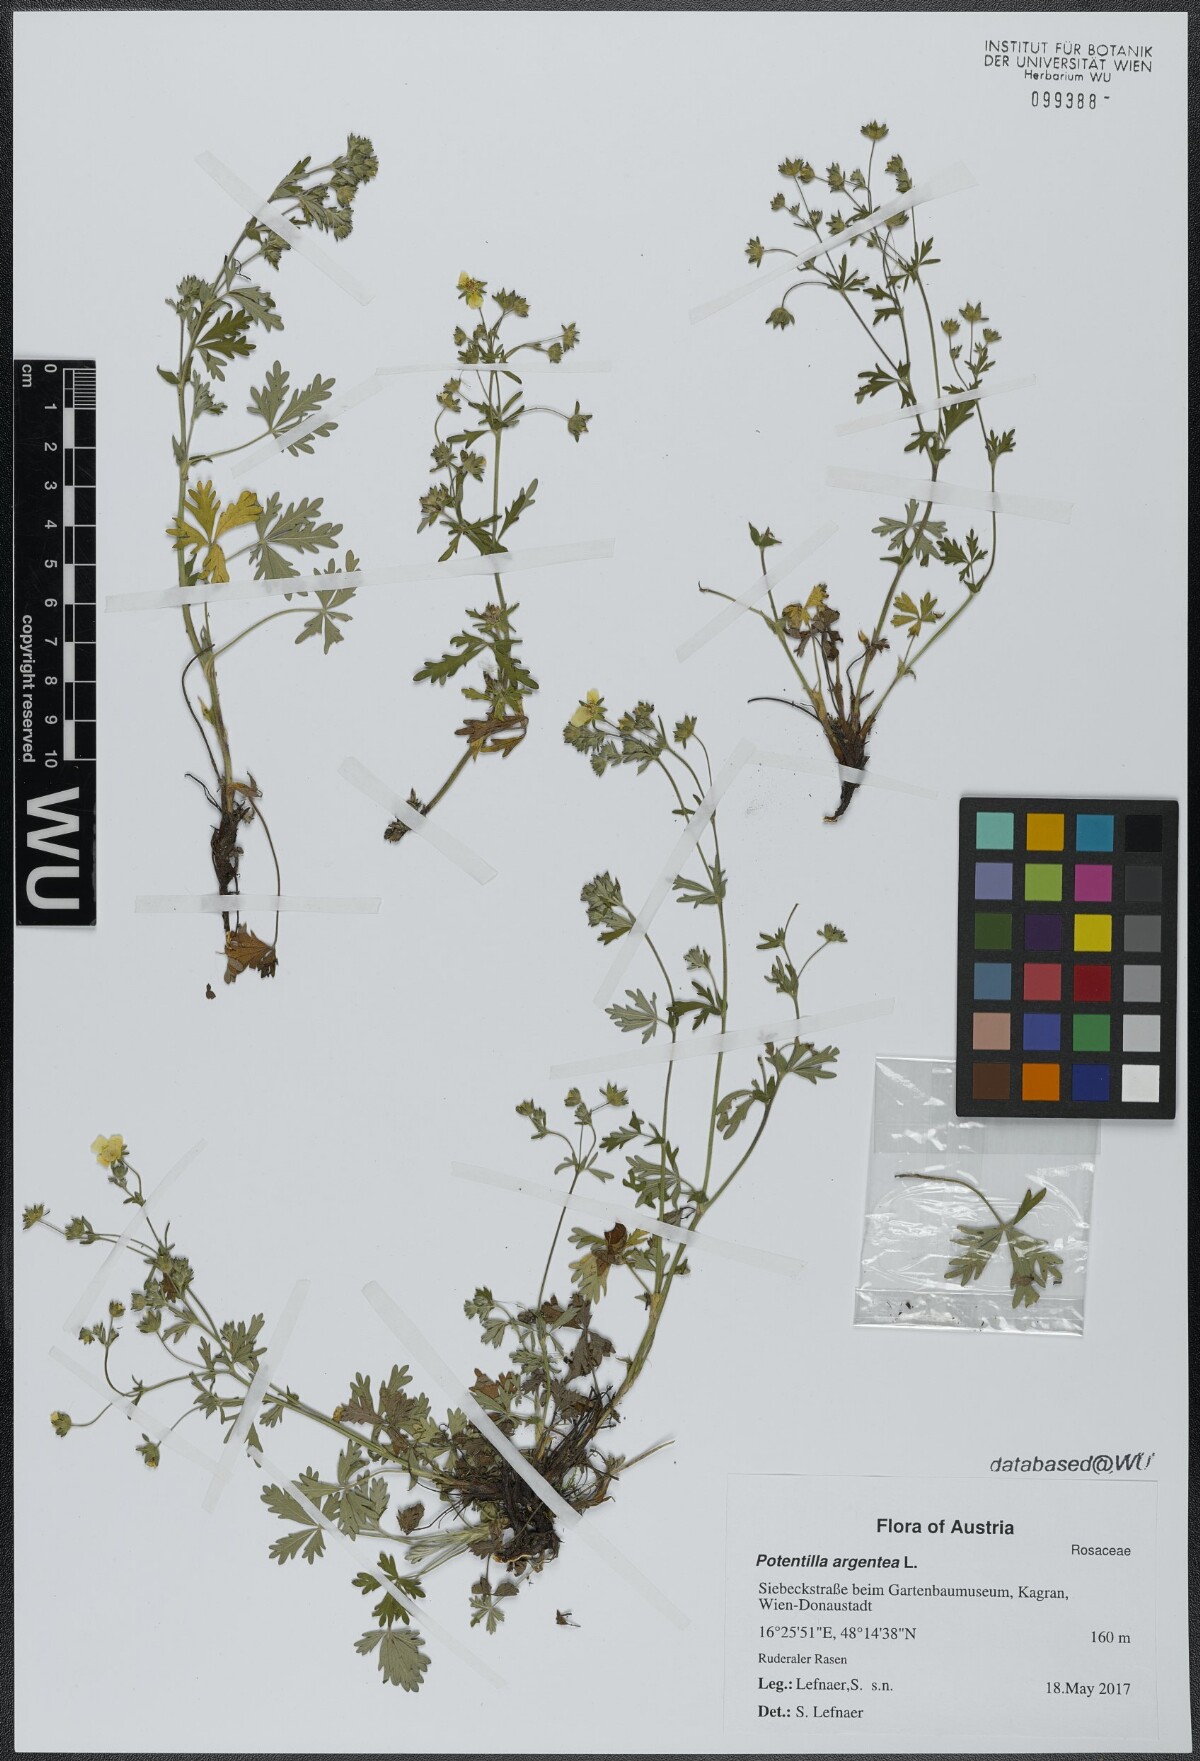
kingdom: Plantae
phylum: Tracheophyta
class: Magnoliopsida
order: Rosales
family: Rosaceae
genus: Potentilla
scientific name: Potentilla argentea
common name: Hoary cinquefoil
